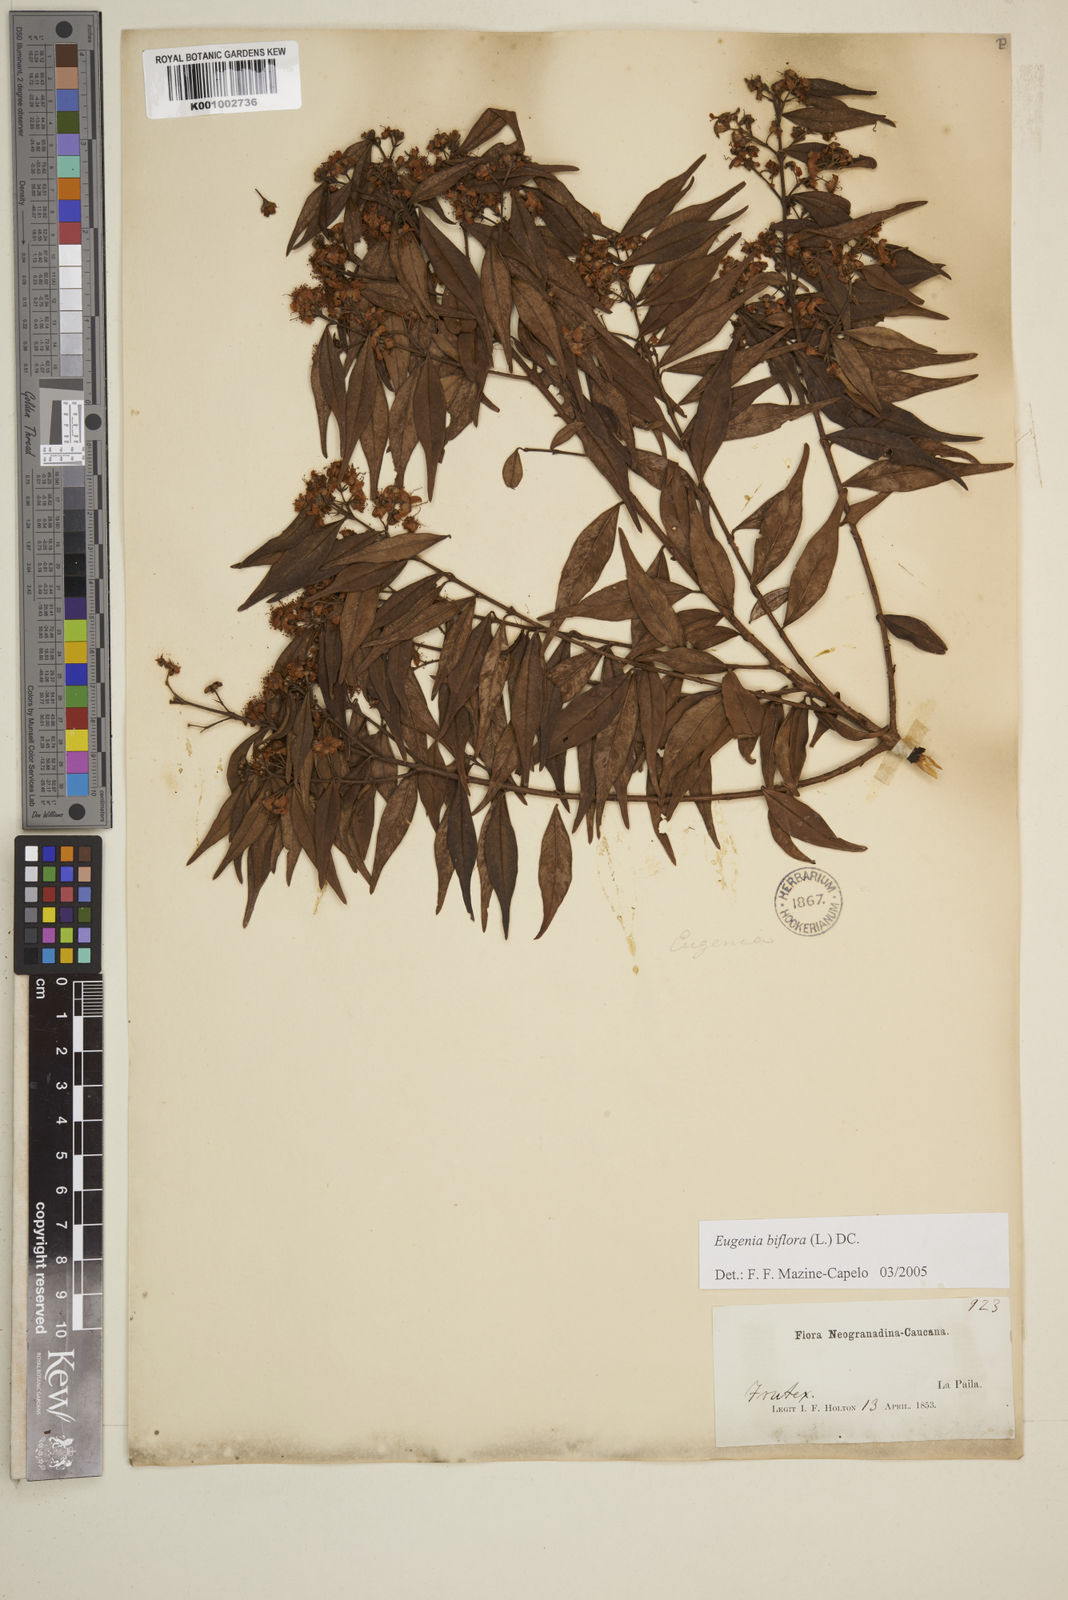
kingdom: Plantae
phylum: Tracheophyta
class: Magnoliopsida
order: Myrtales
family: Myrtaceae
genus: Eugenia
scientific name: Eugenia biflora
